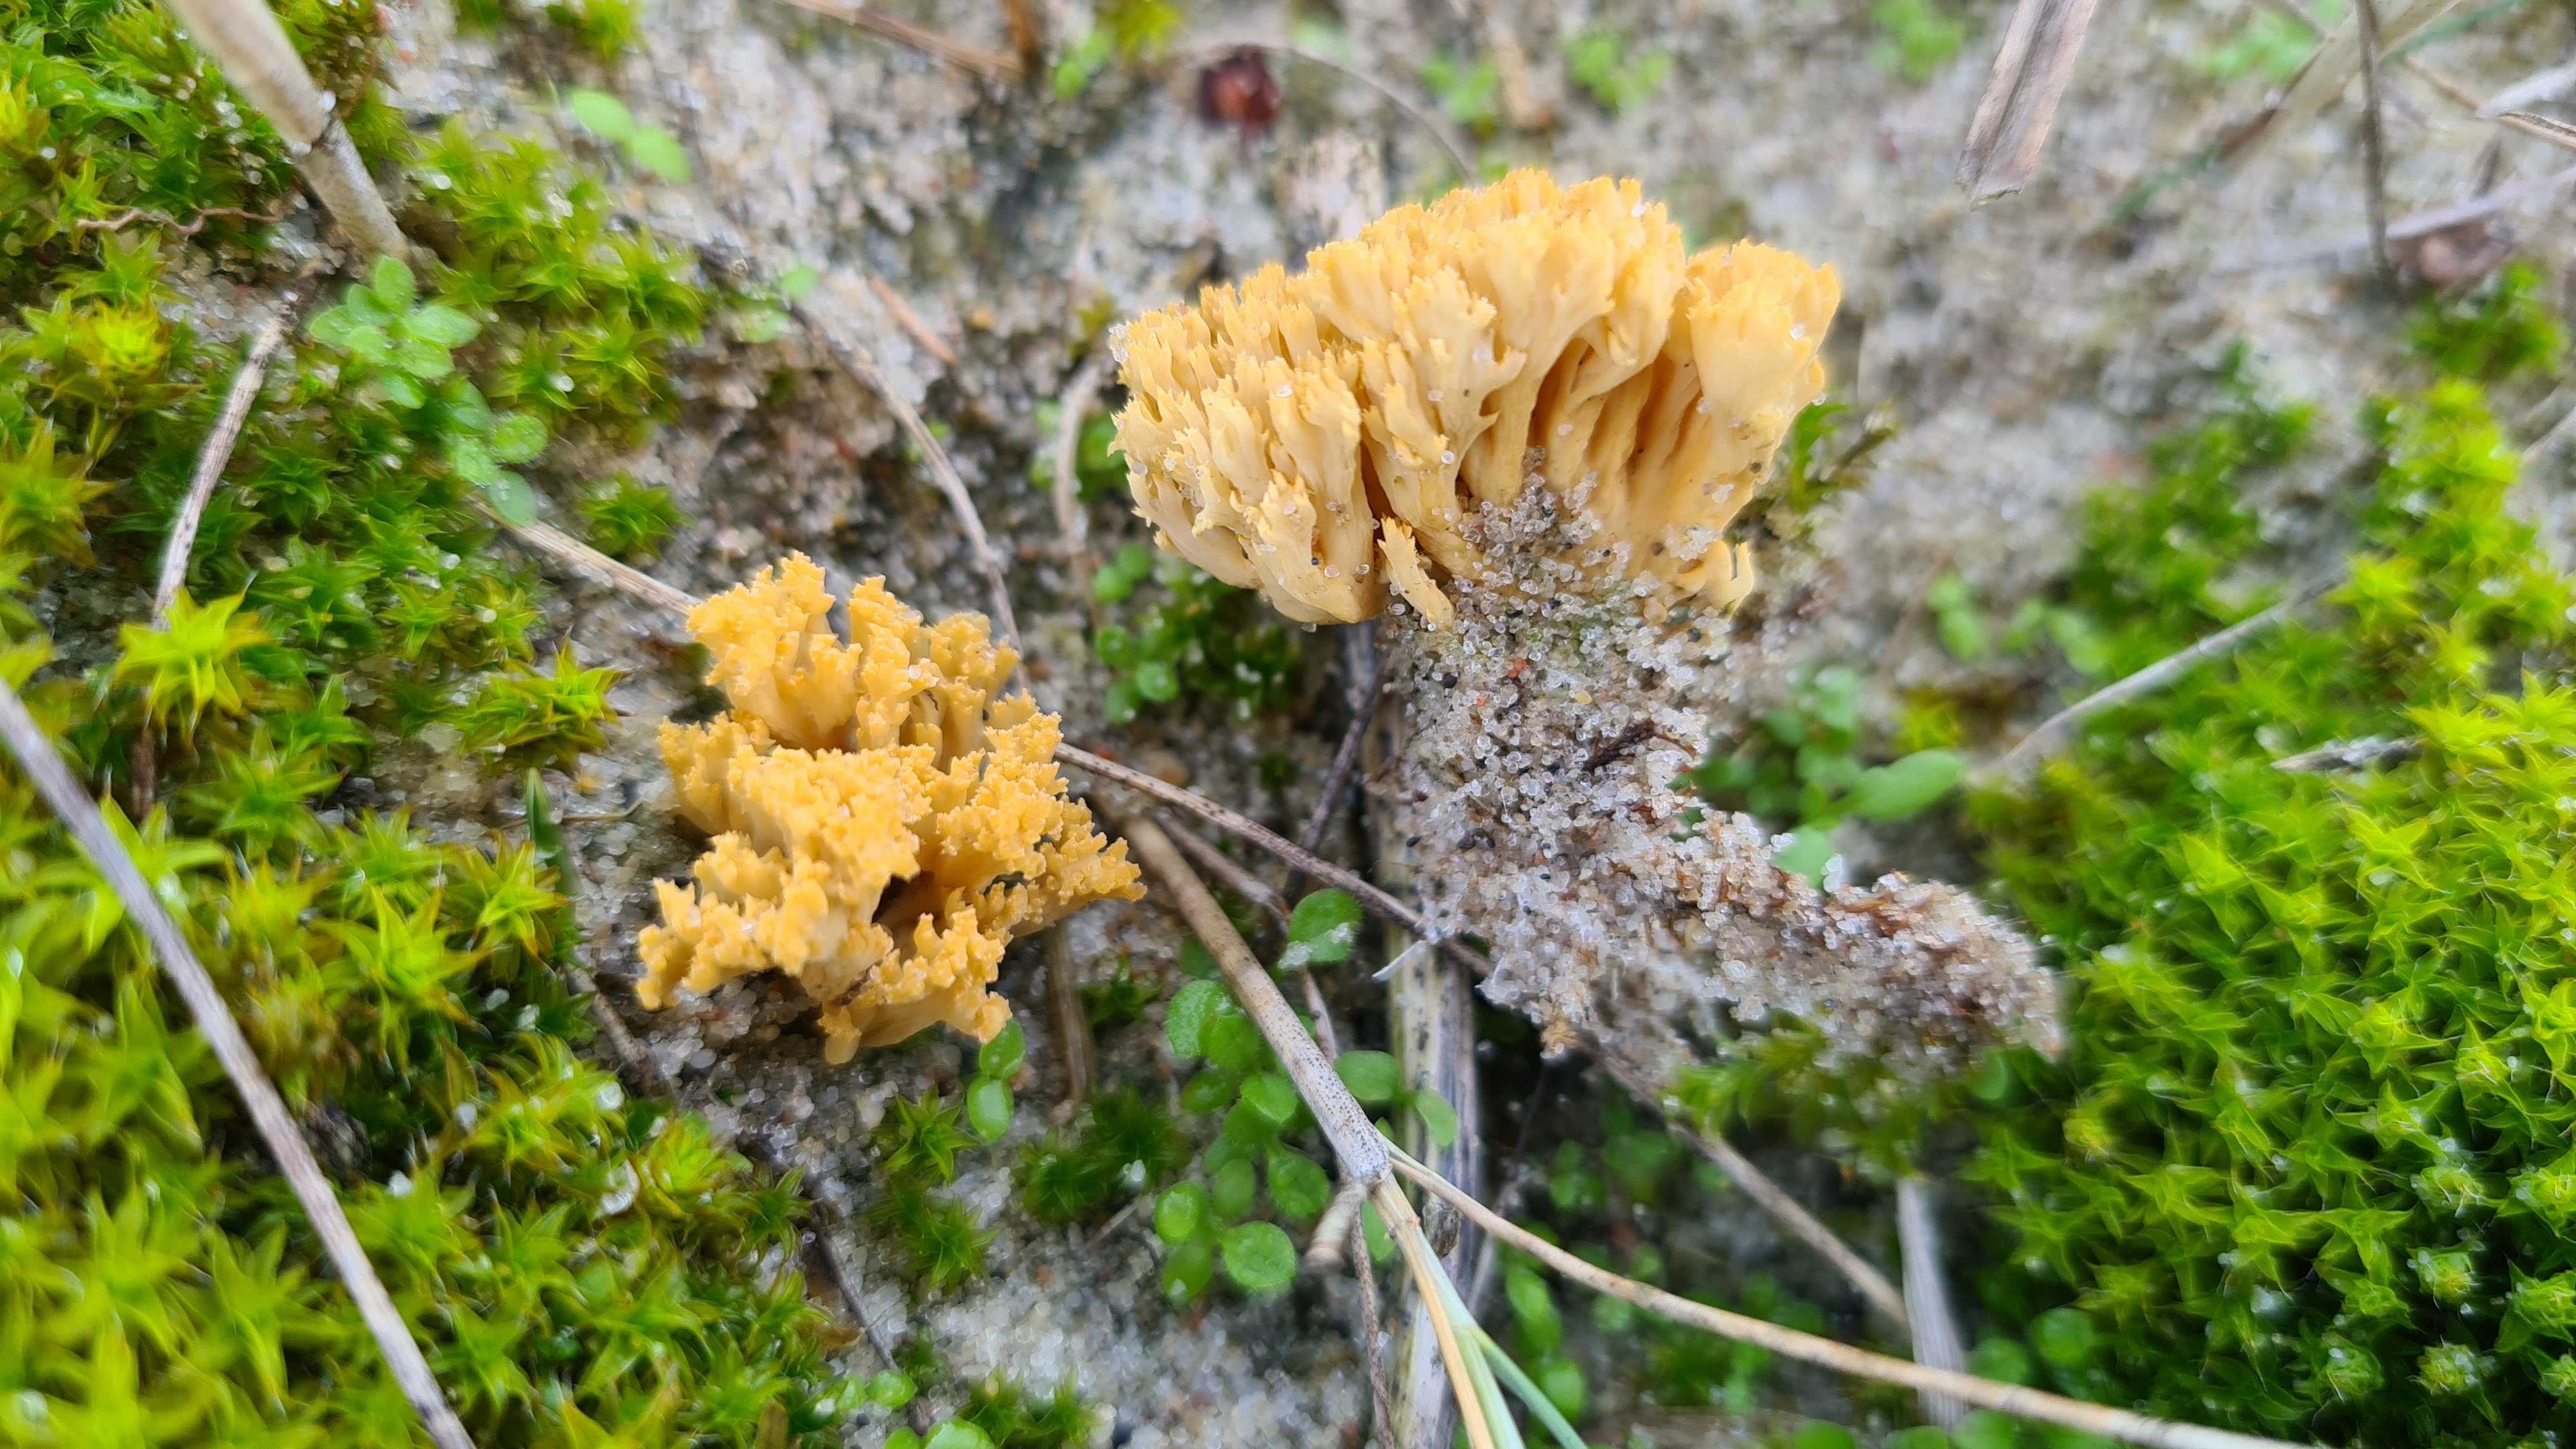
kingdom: Fungi
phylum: Basidiomycota
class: Agaricomycetes
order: Gomphales
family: Gomphaceae
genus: Phaeoclavulina
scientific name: Phaeoclavulina flaccida
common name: spinkel koralsvamp
